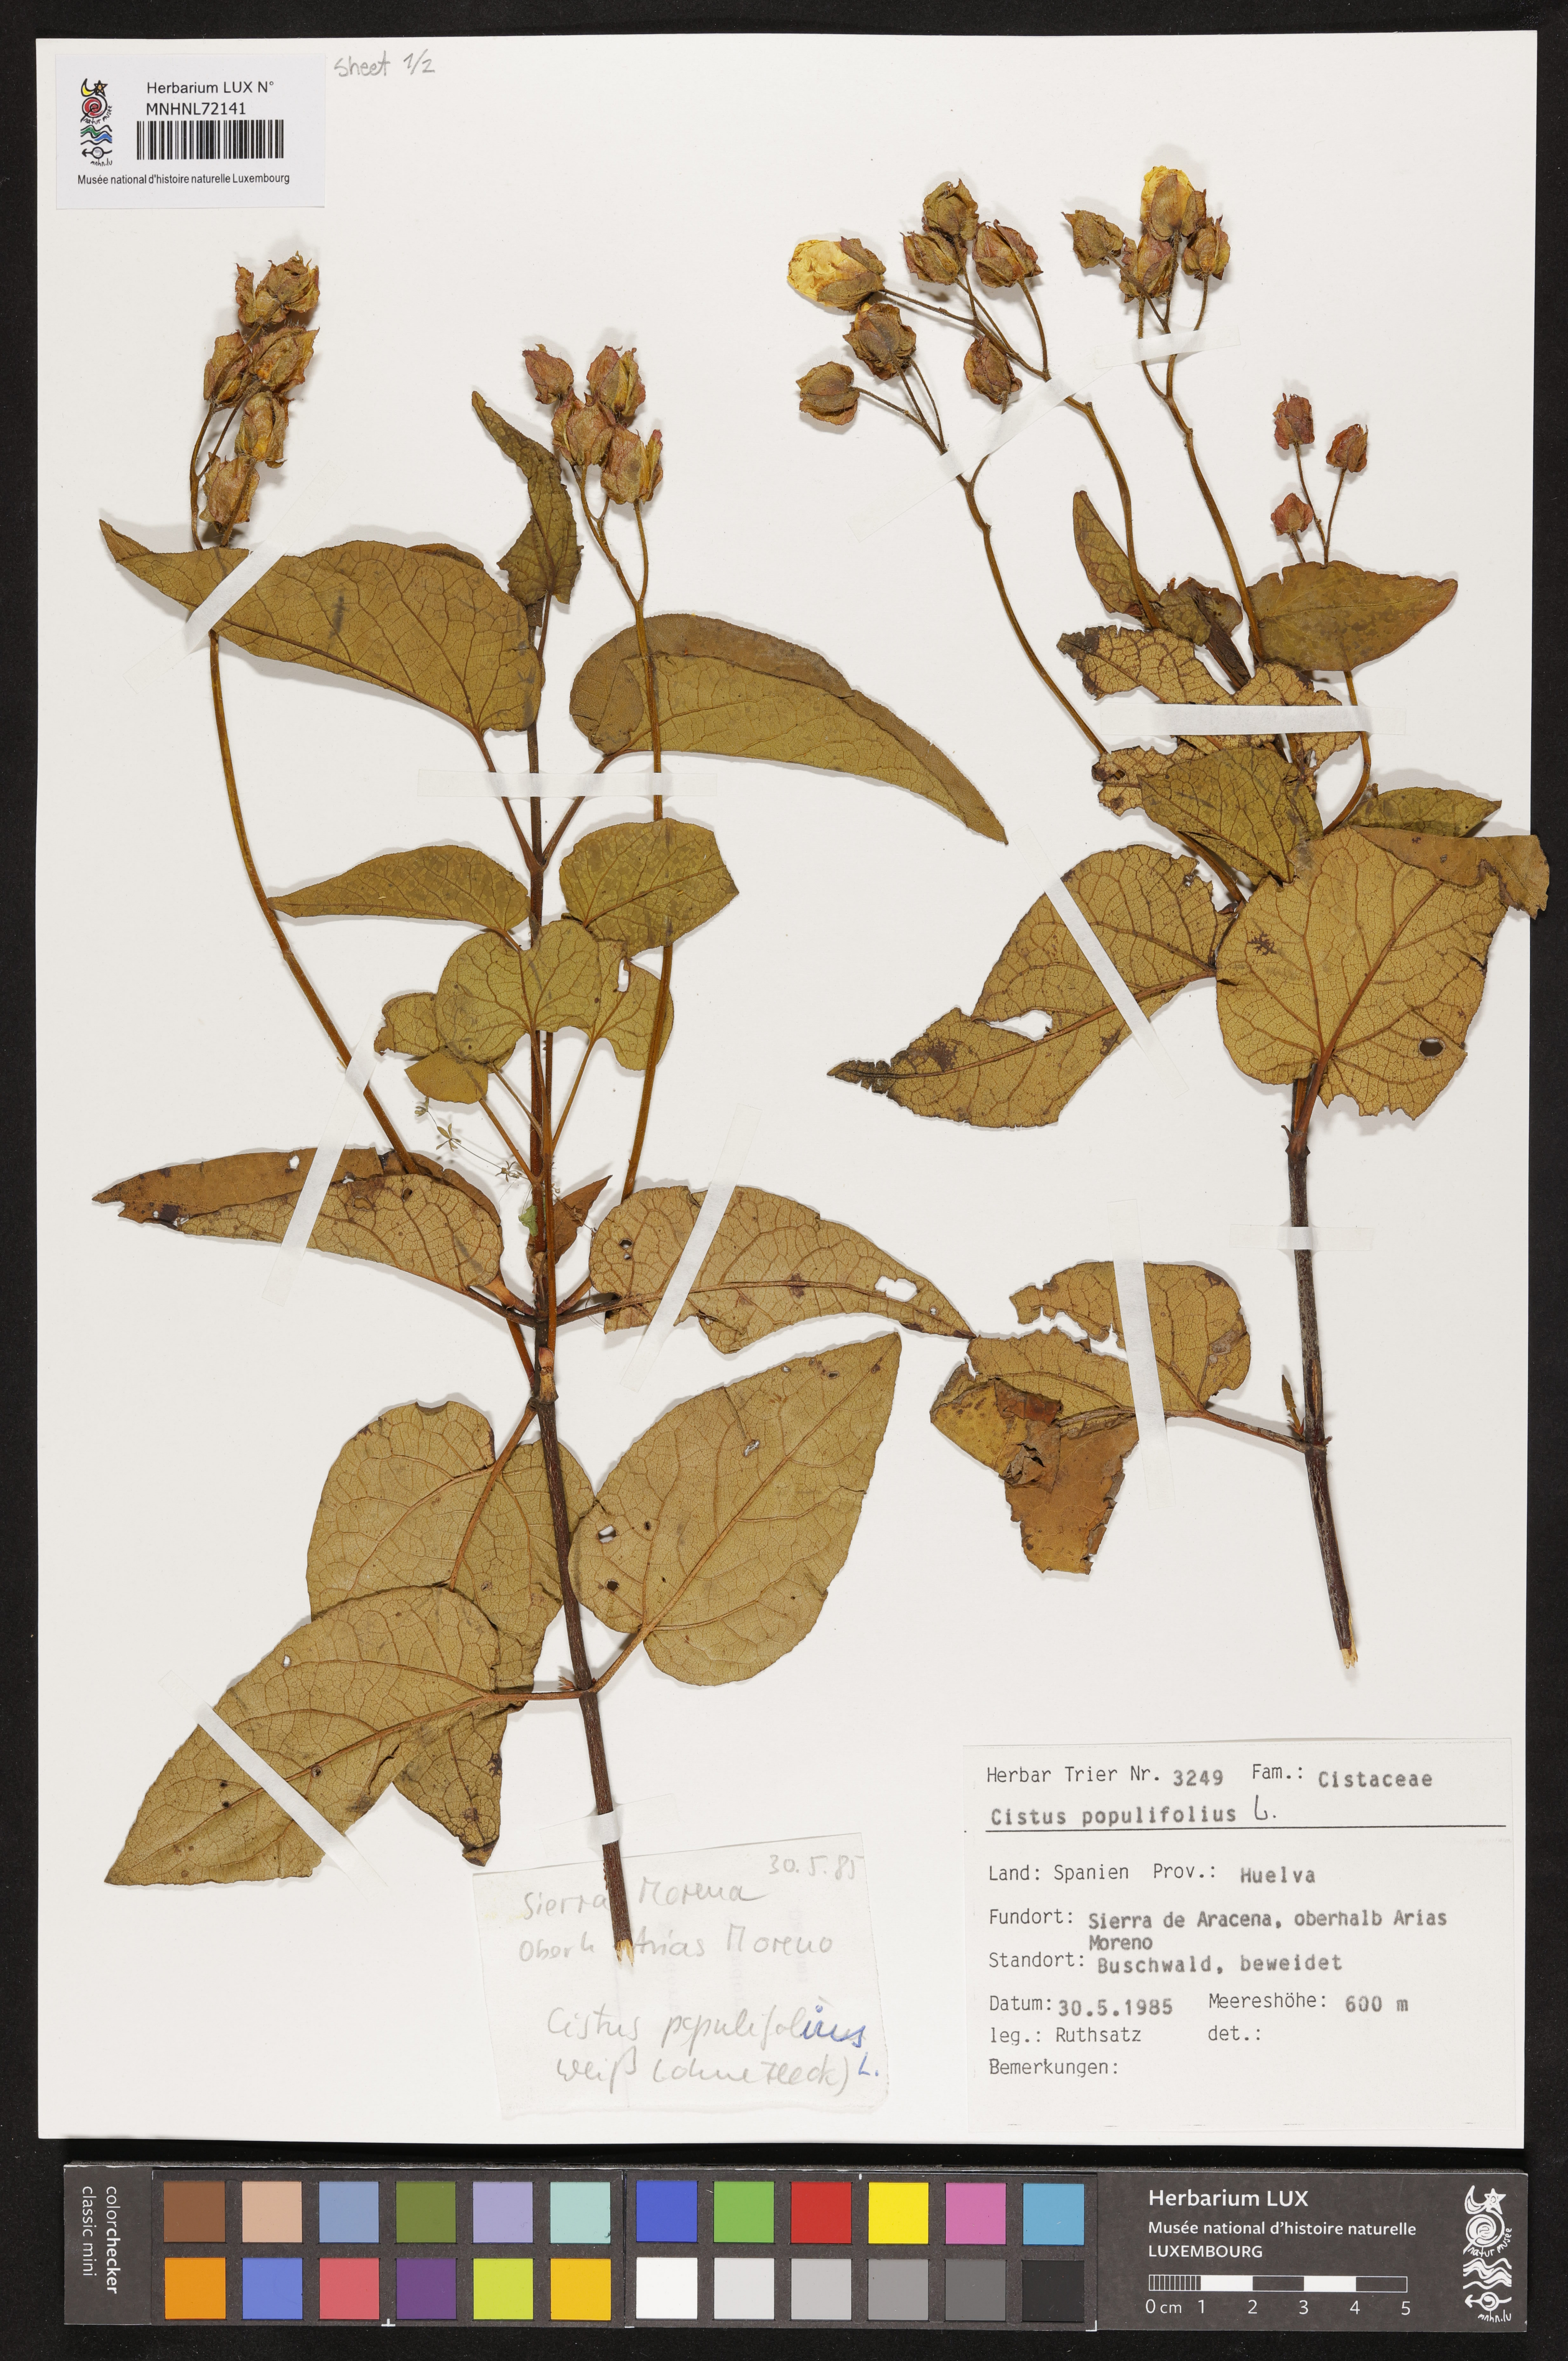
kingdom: Plantae
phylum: Tracheophyta
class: Magnoliopsida
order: Malvales
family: Cistaceae
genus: Cistus
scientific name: Cistus populifolius
